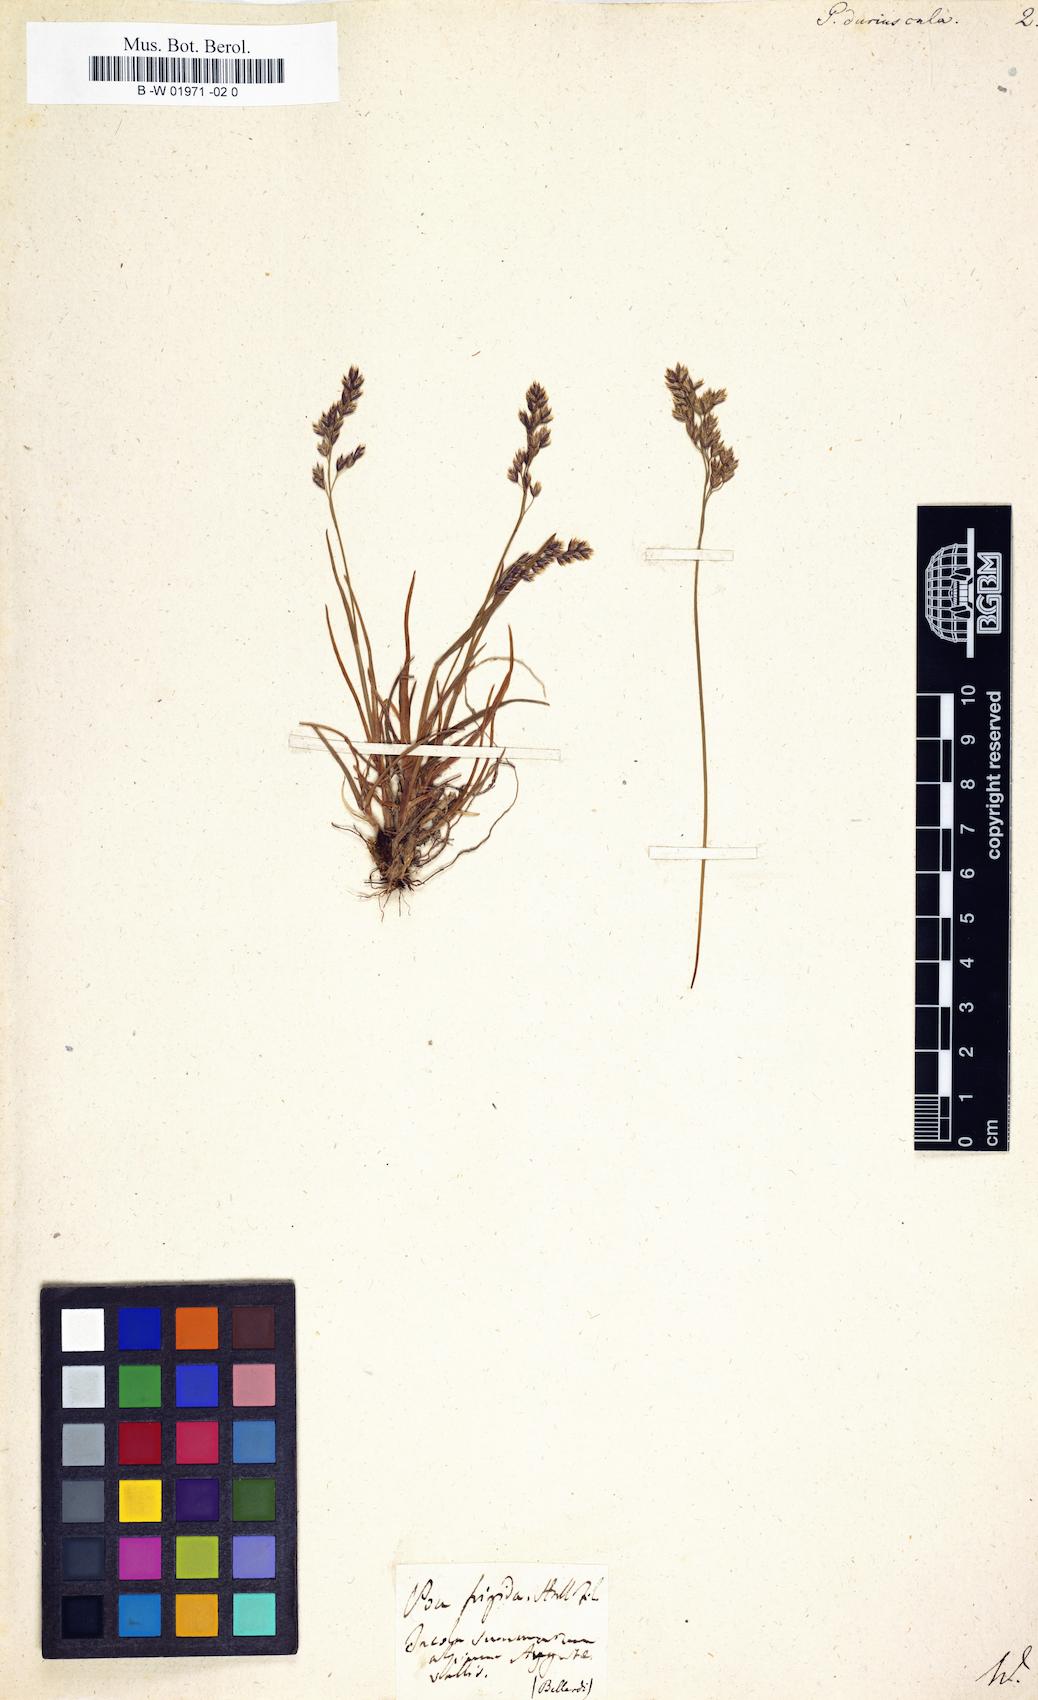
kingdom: Plantae
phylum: Tracheophyta
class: Liliopsida
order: Poales
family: Poaceae
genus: Poa
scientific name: Poa supina
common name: Supina bluegrass
